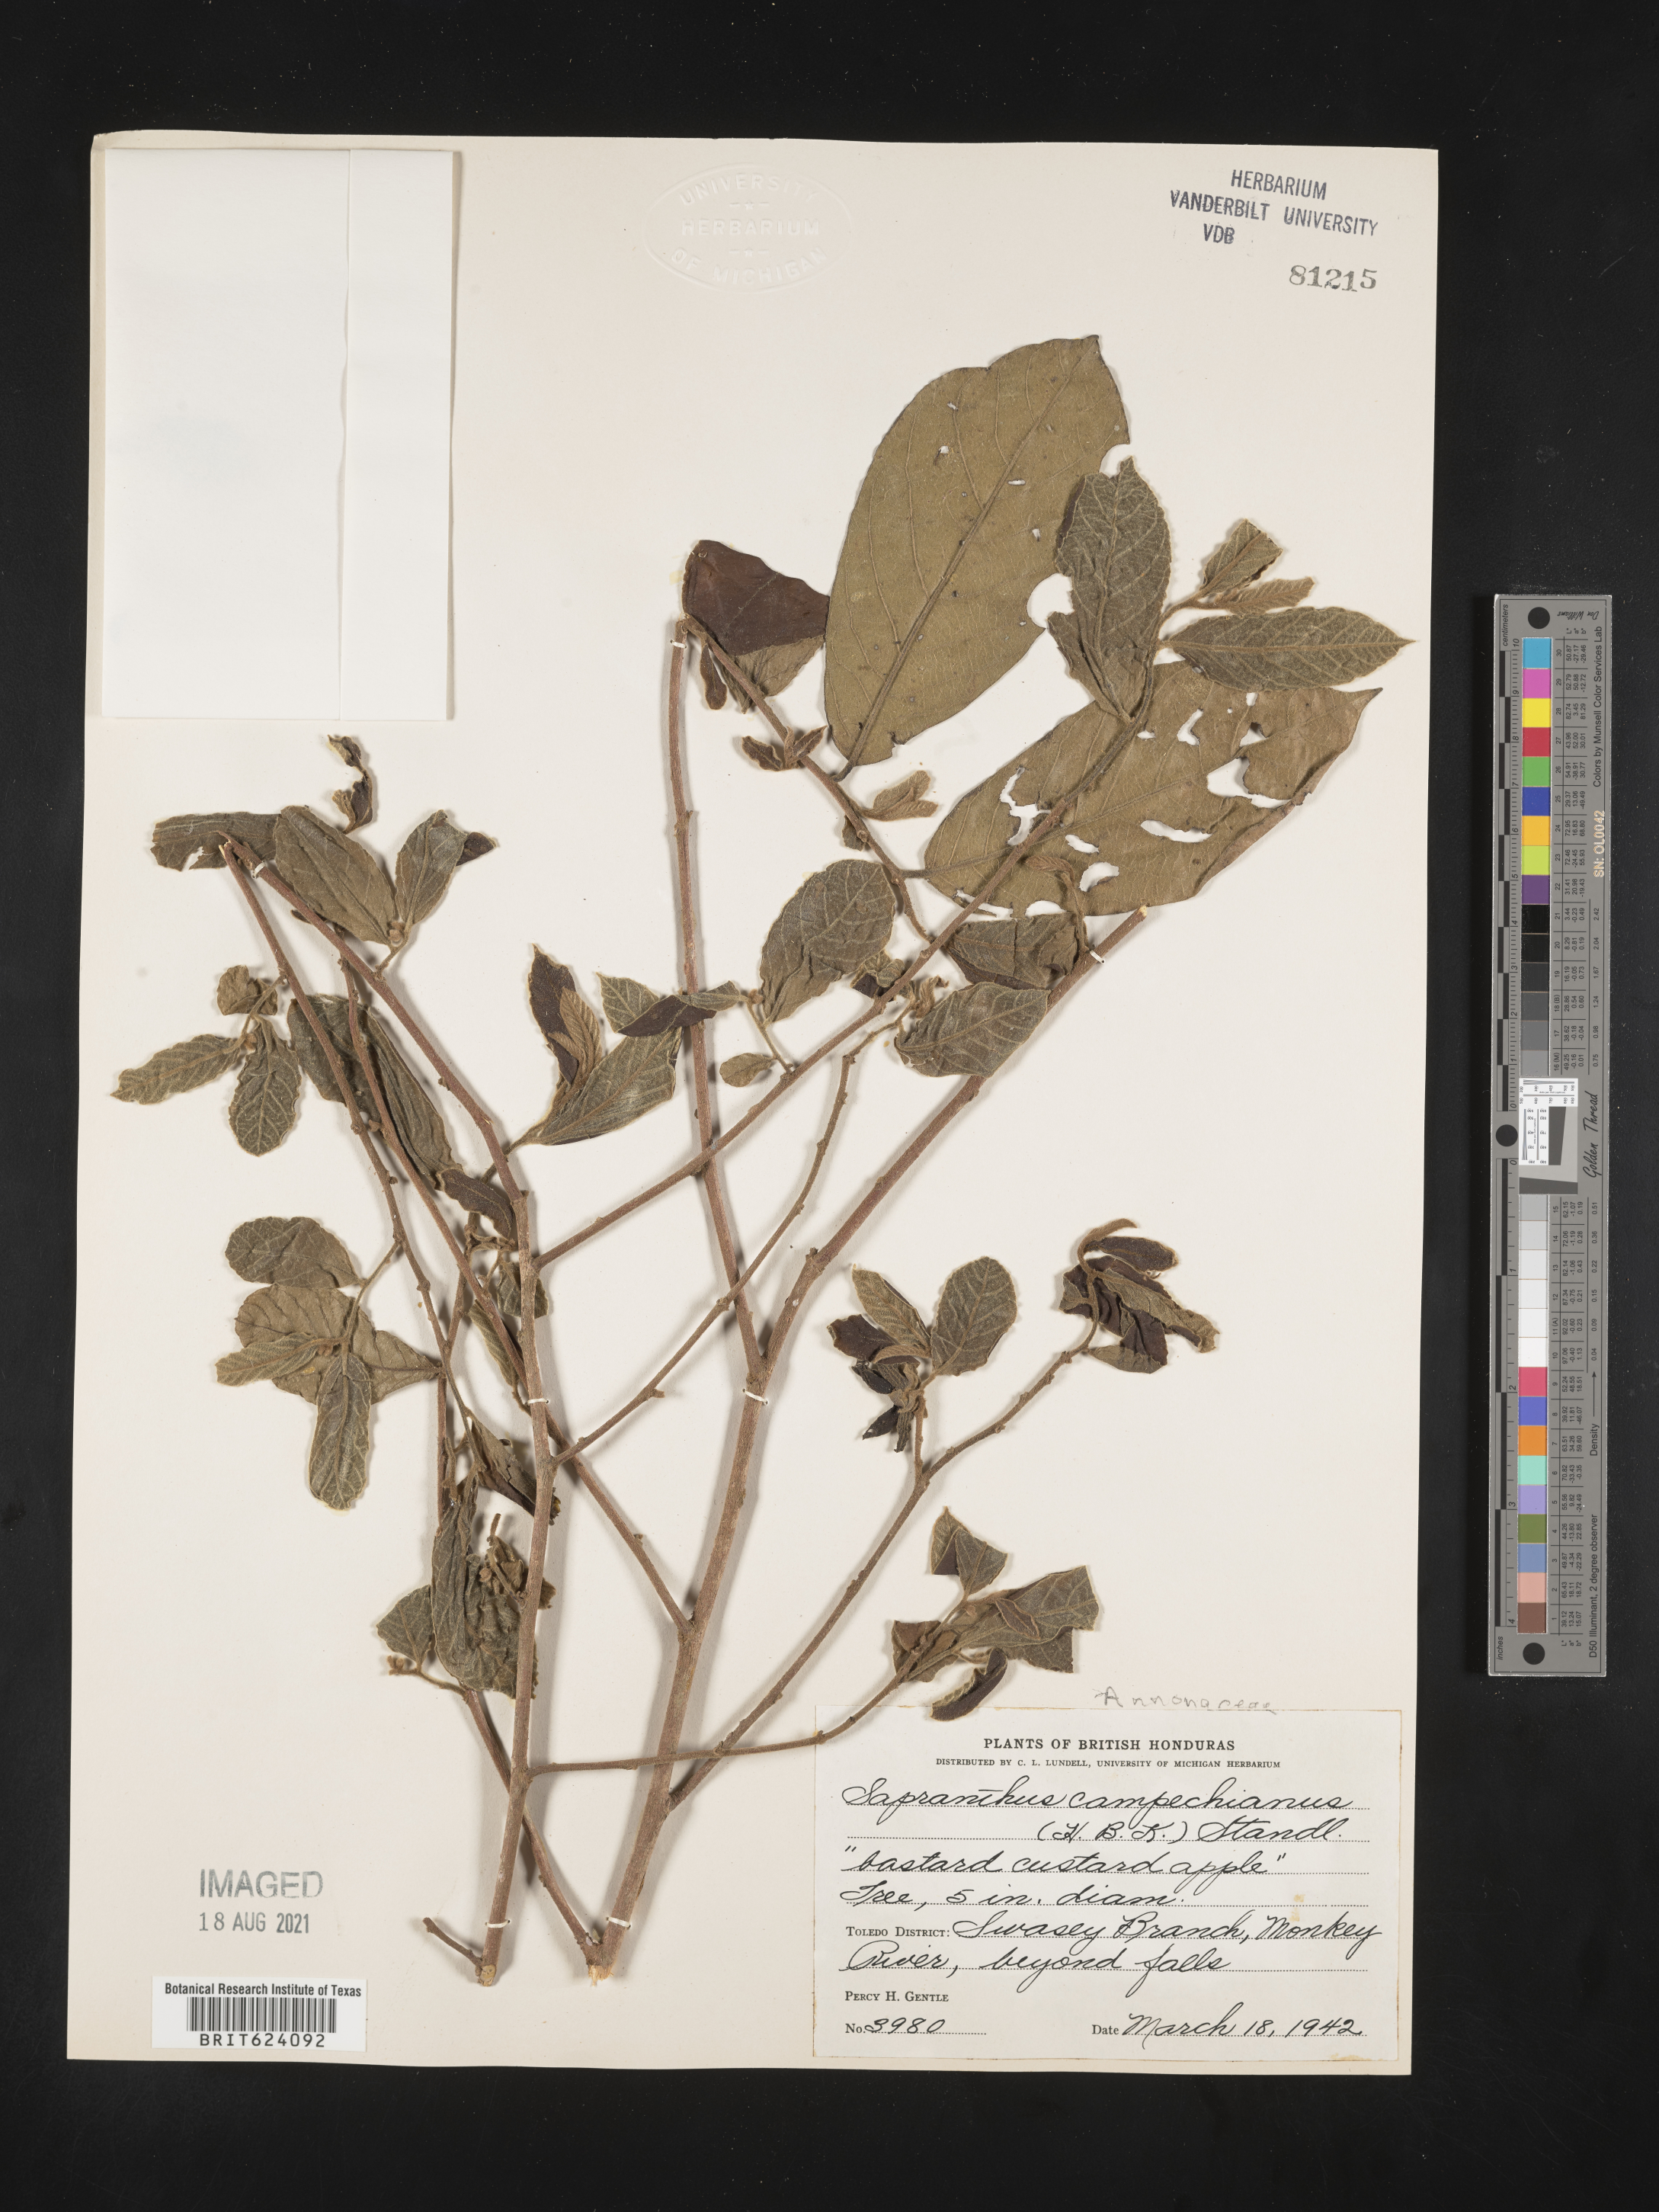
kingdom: Plantae
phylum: Tracheophyta
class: Magnoliopsida
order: Magnoliales
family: Annonaceae
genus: Sapranthus
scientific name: Sapranthus campechianus
